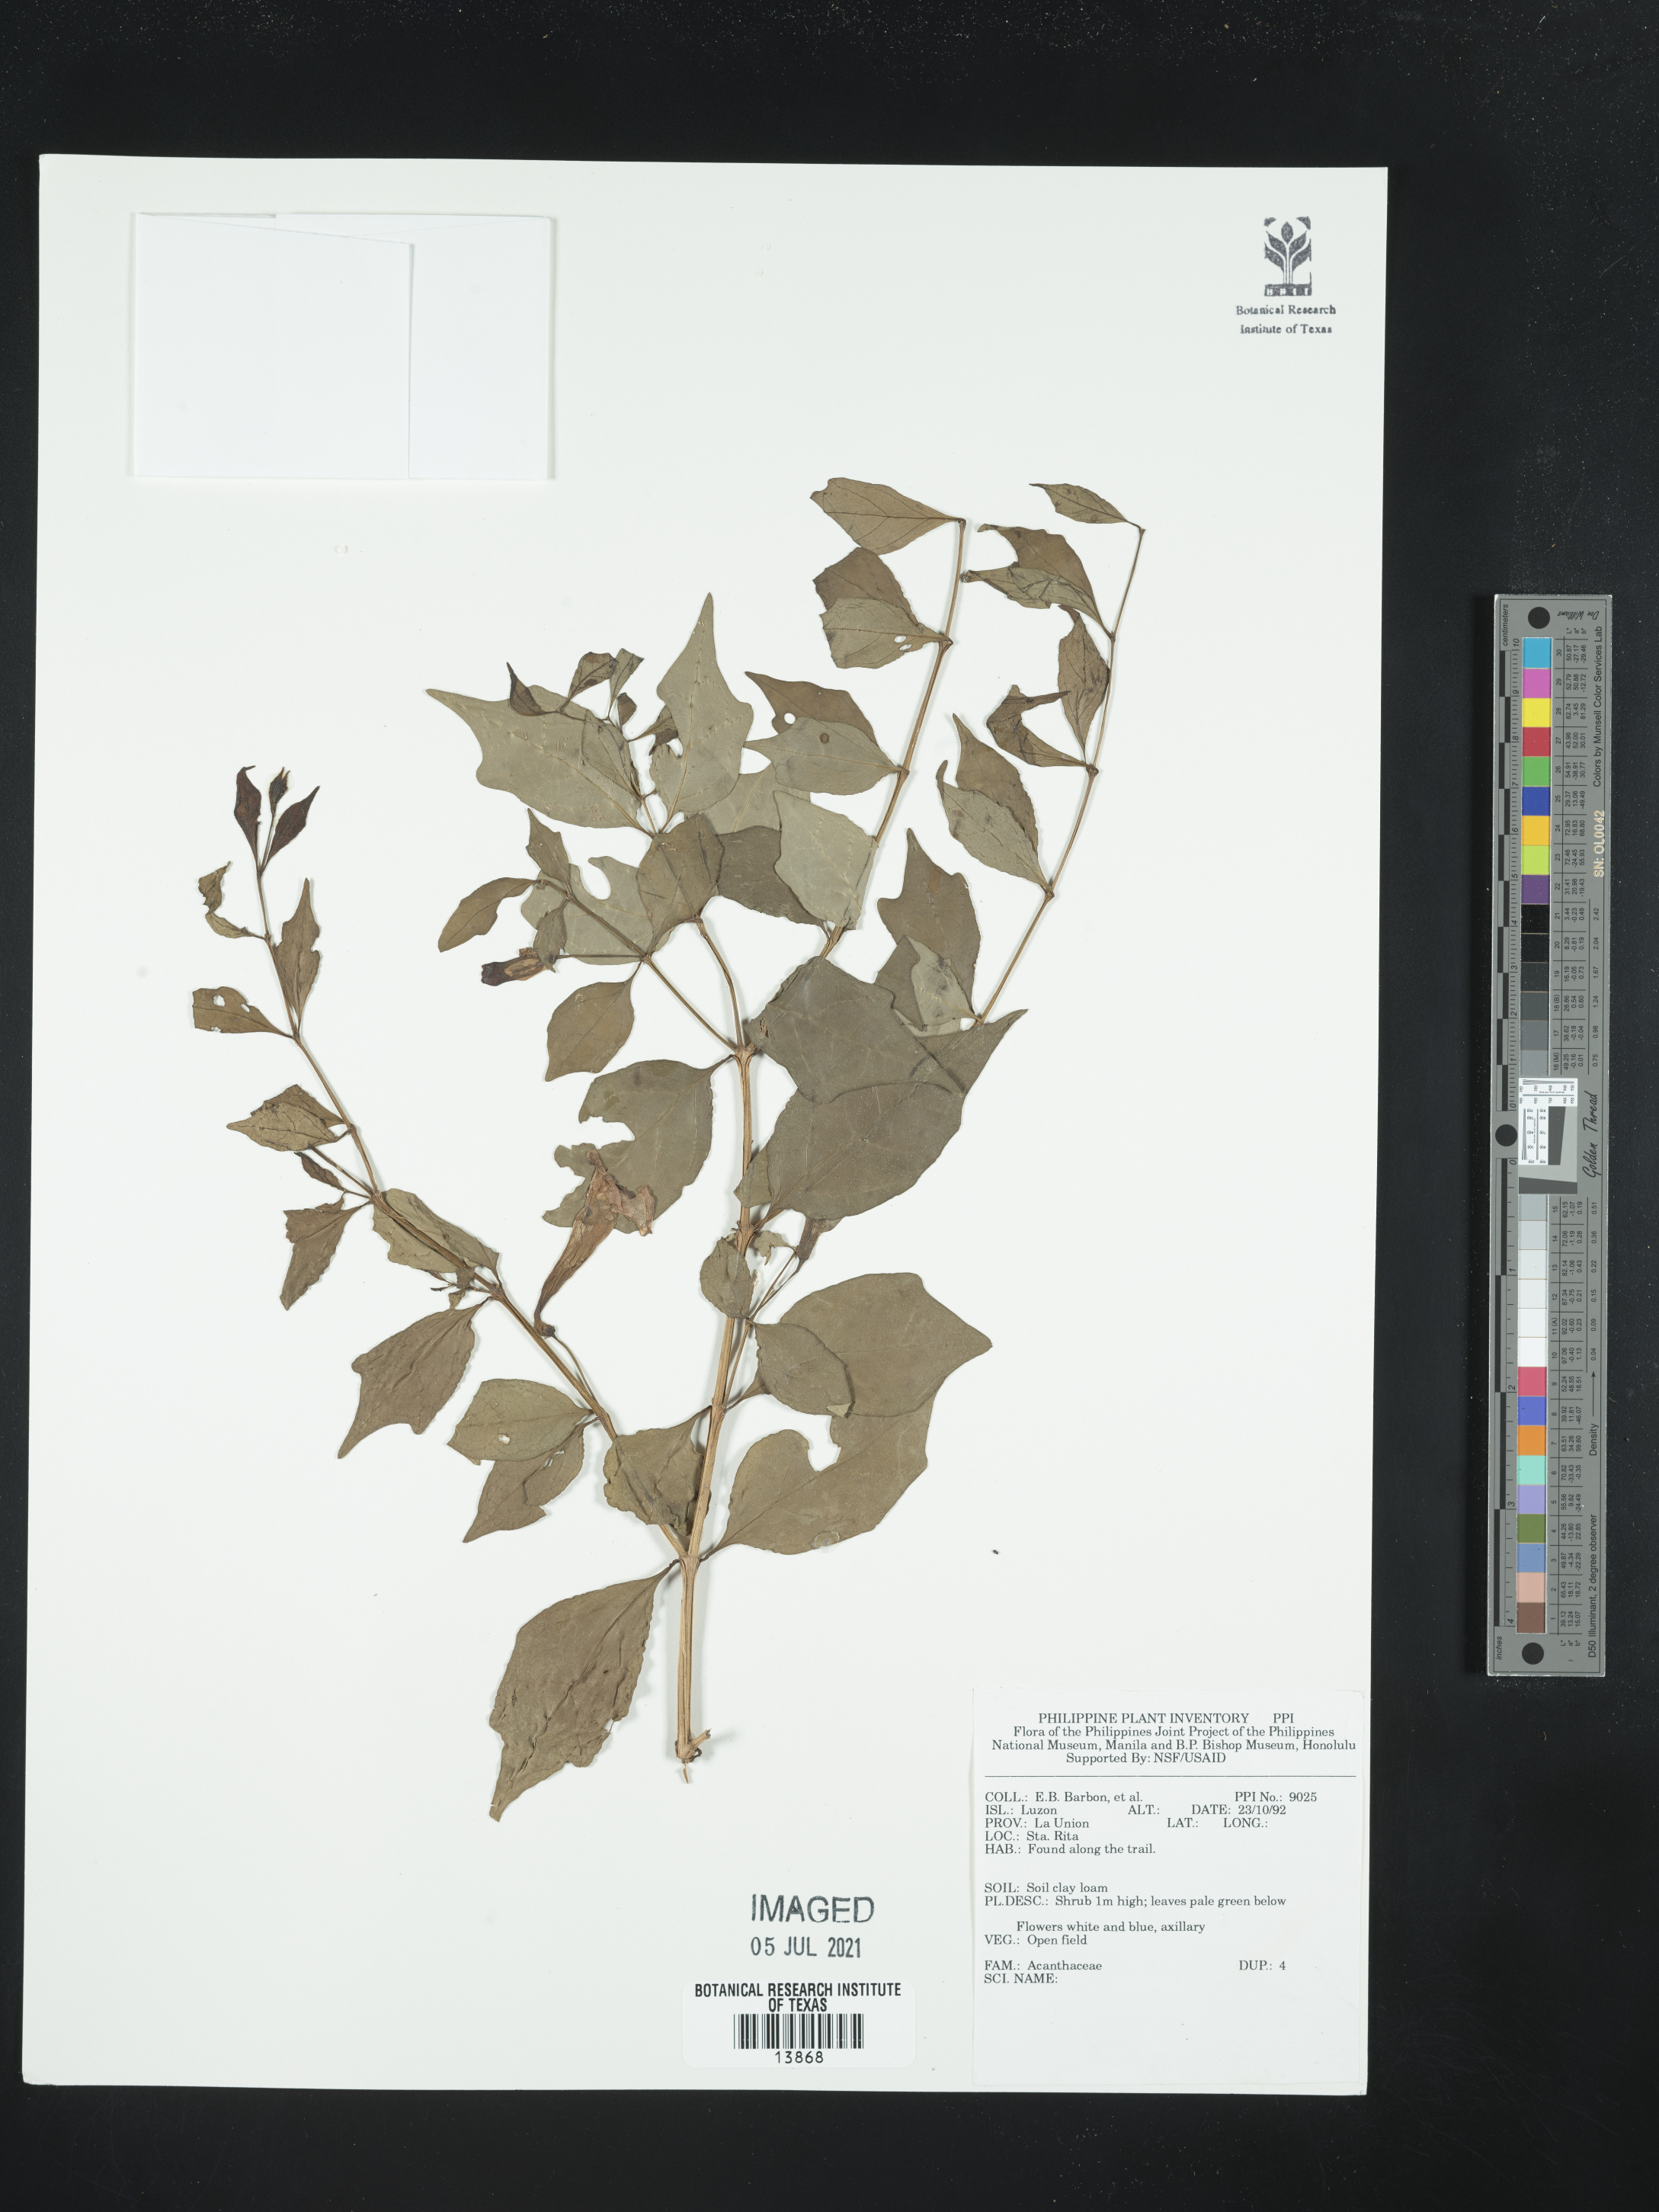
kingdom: Plantae
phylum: Tracheophyta
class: Magnoliopsida
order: Lamiales
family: Acanthaceae
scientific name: Acanthaceae
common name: Acanthaceae
